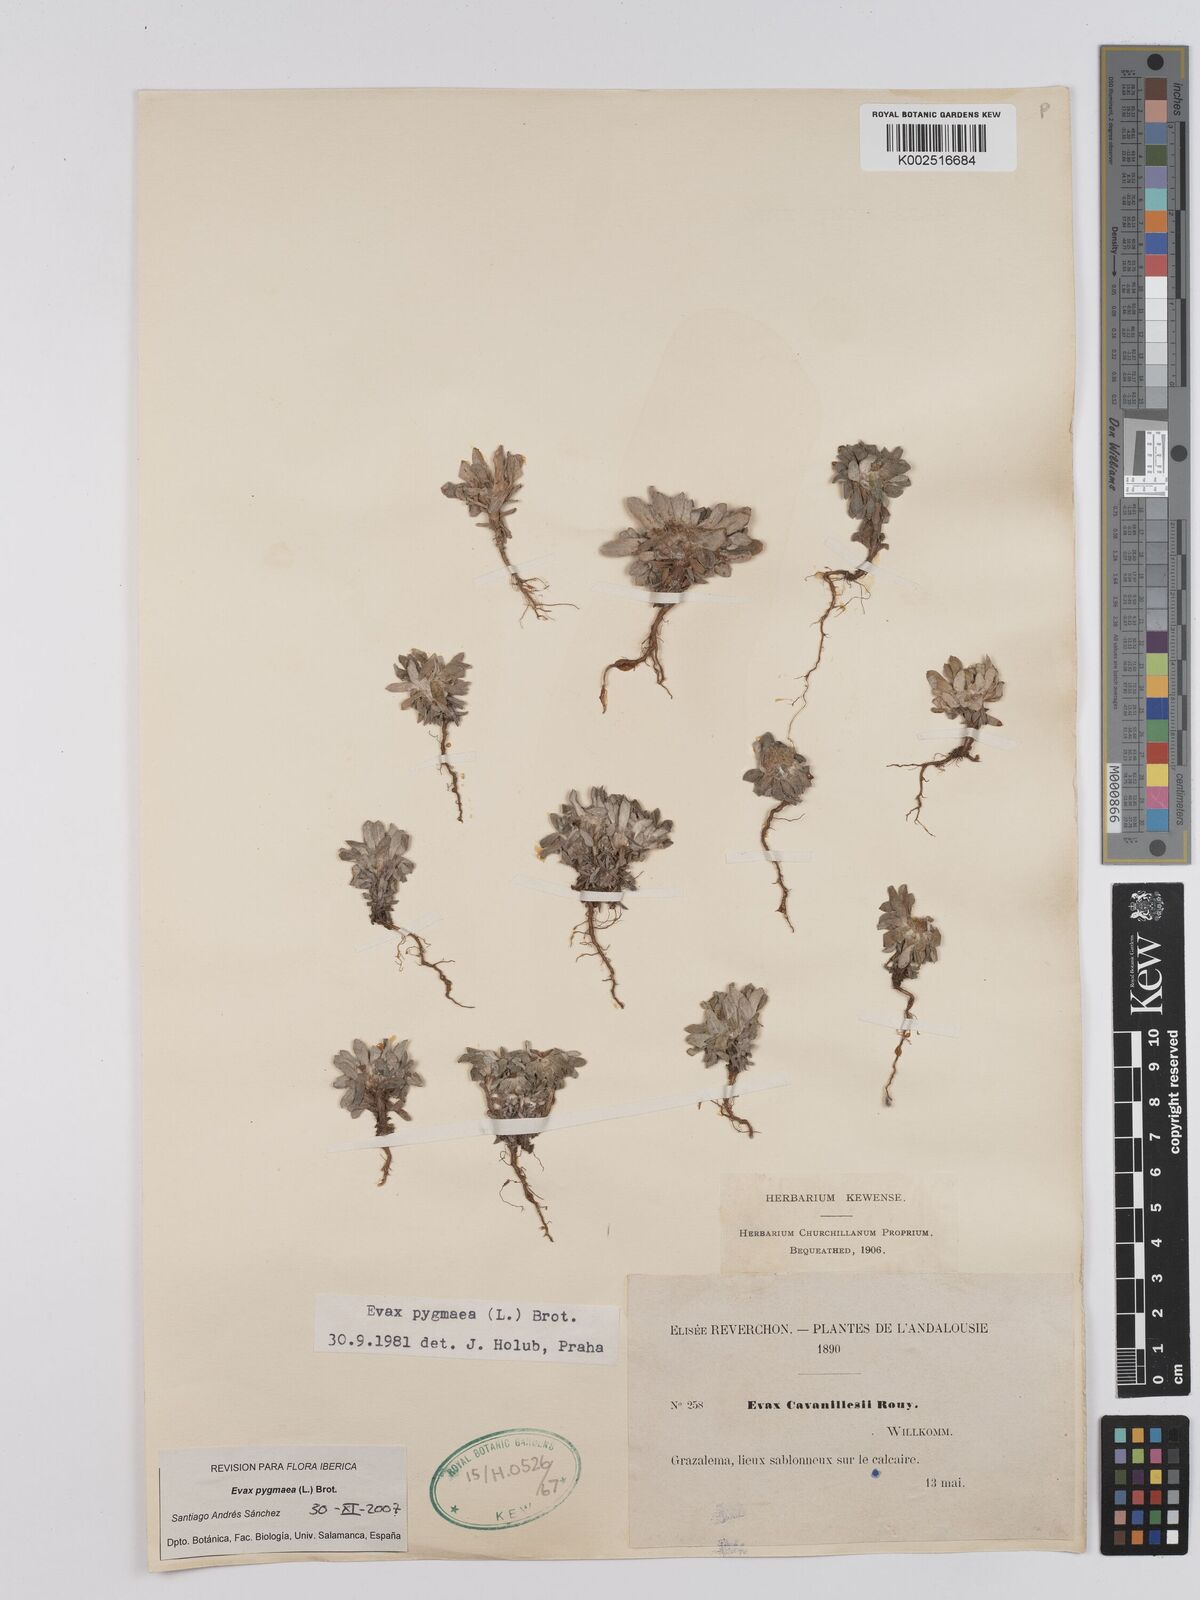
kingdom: Plantae
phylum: Tracheophyta
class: Magnoliopsida
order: Asterales
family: Asteraceae
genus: Filago
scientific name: Filago pygmaea
